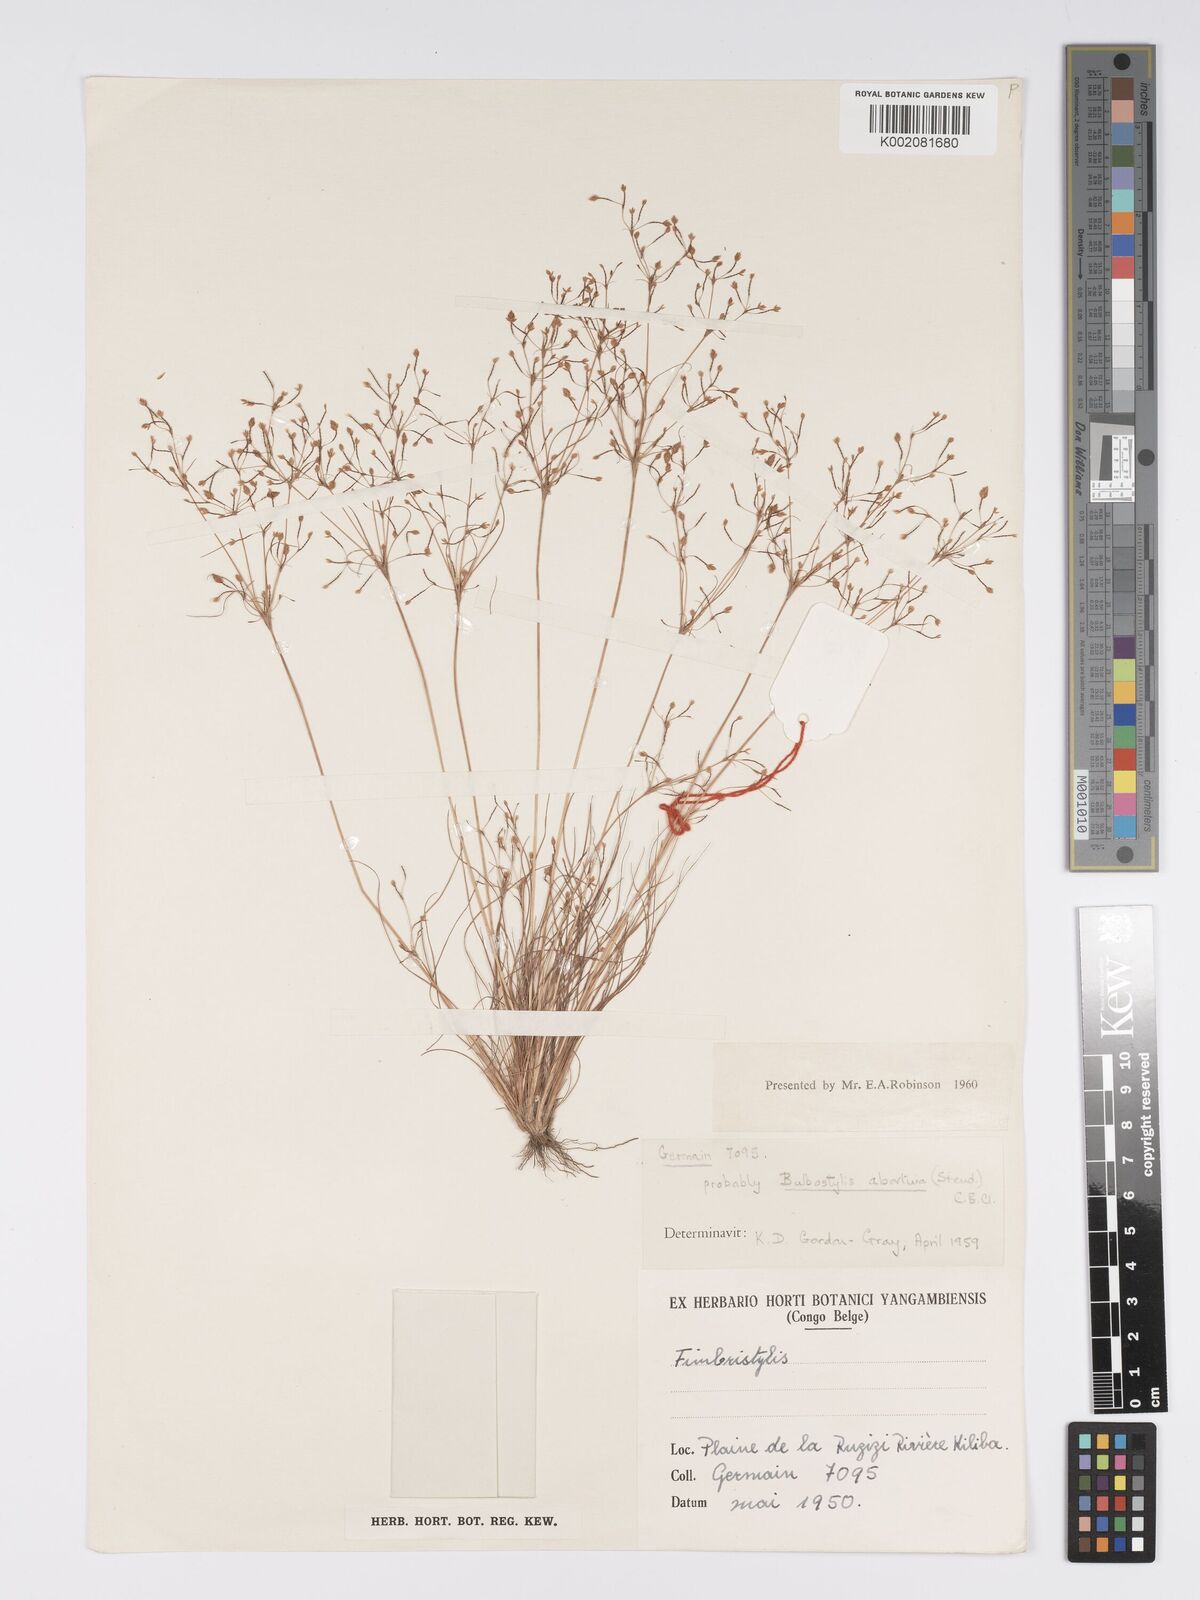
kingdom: Plantae
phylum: Tracheophyta
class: Liliopsida
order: Poales
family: Cyperaceae
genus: Bulbostylis
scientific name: Bulbostylis abortiva
